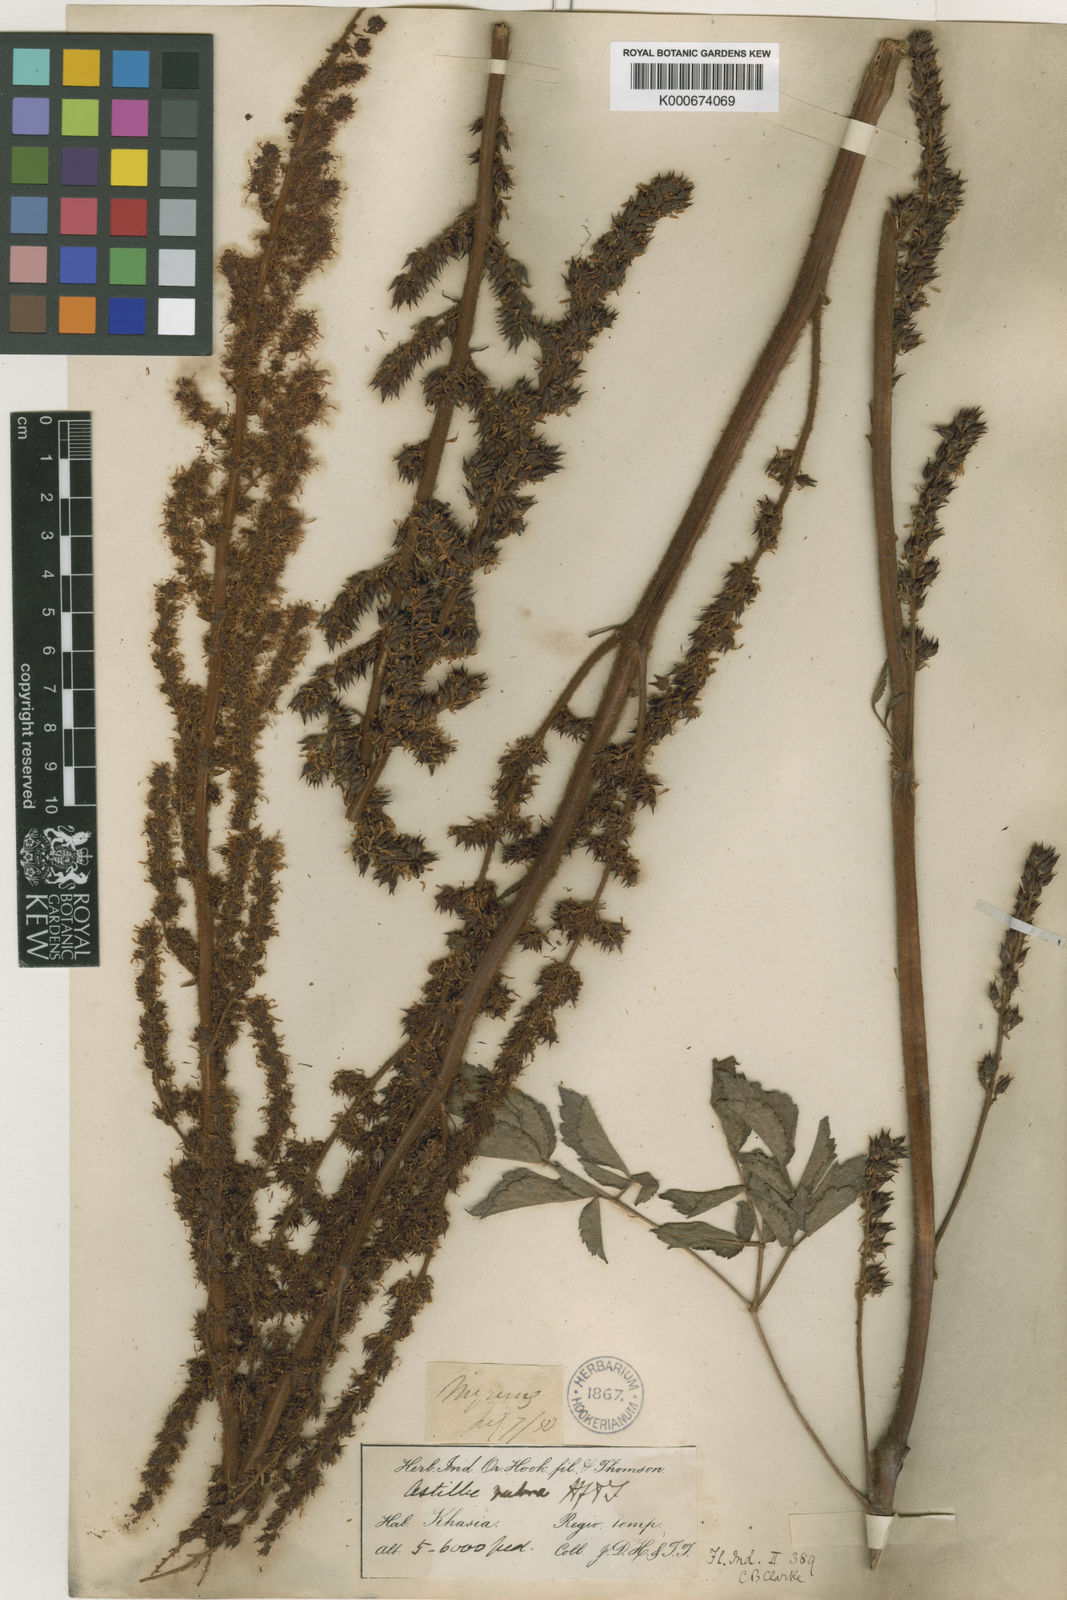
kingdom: Plantae
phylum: Tracheophyta
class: Magnoliopsida
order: Saxifragales
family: Saxifragaceae
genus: Astilbe
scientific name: Astilbe rubra
